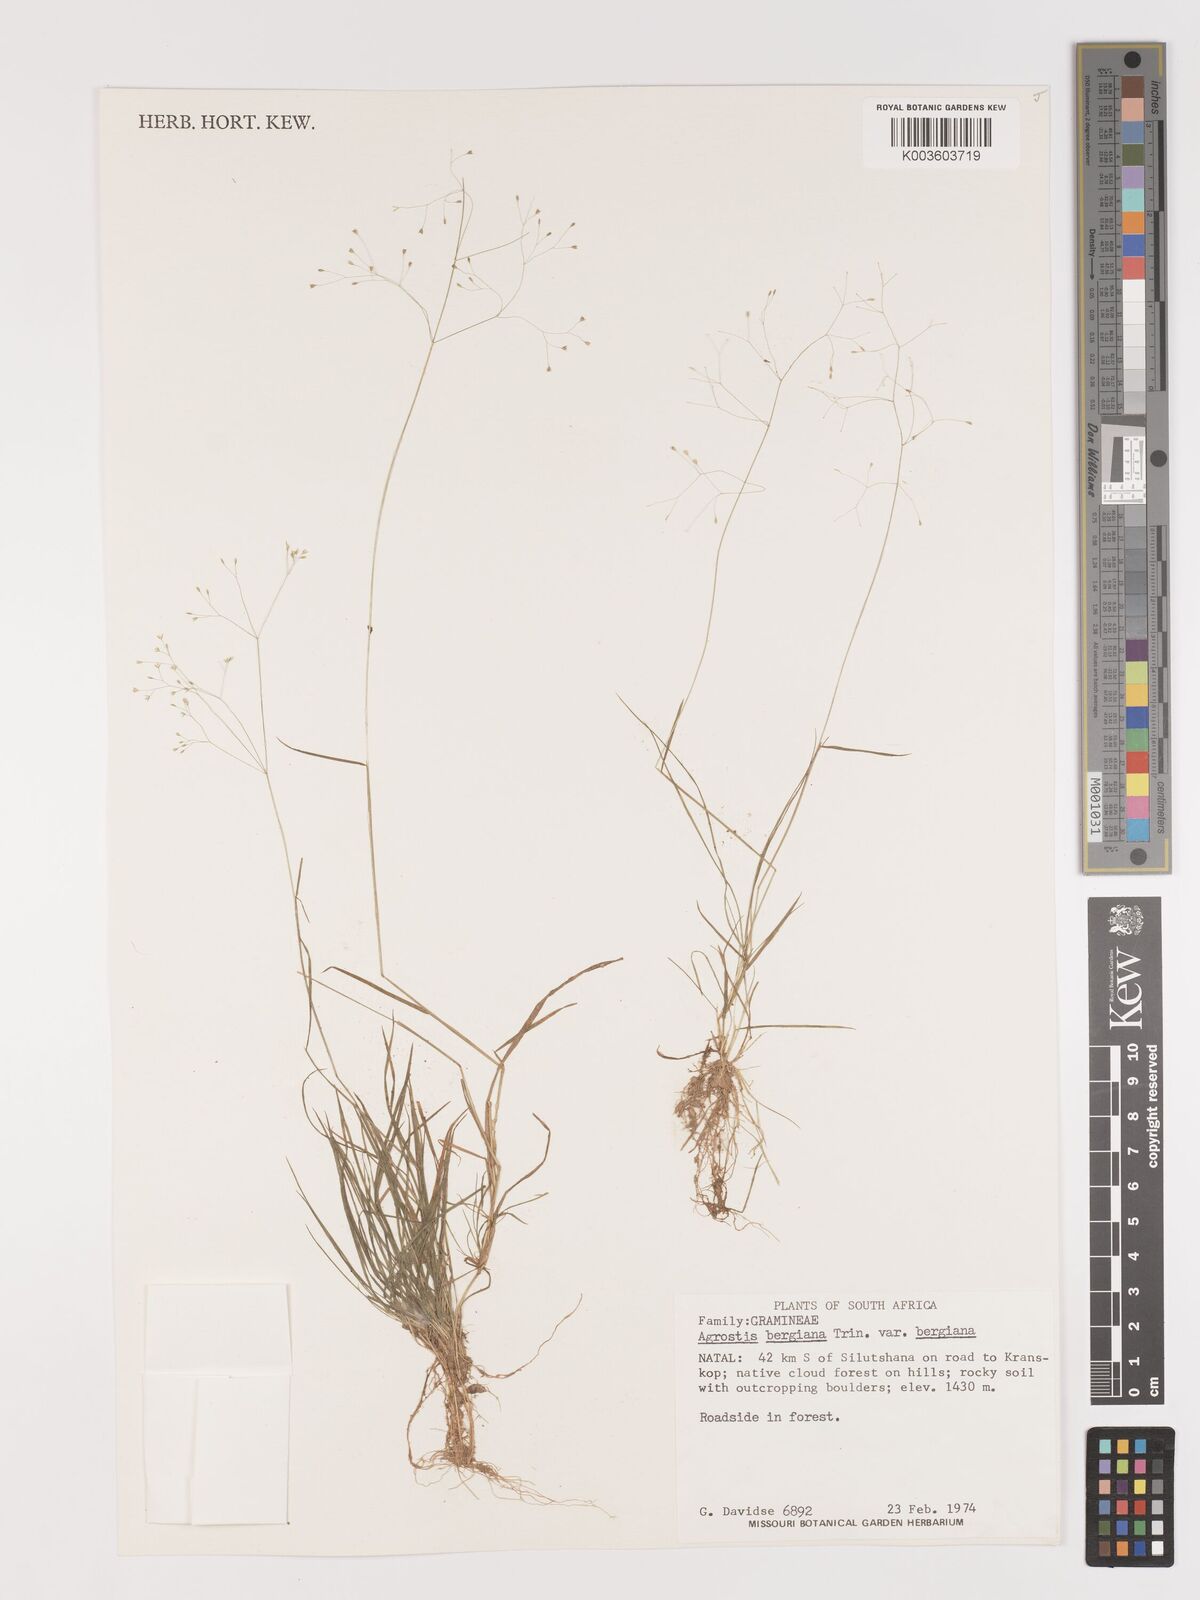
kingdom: Plantae
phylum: Tracheophyta
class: Liliopsida
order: Poales
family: Poaceae
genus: Agrostis
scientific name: Agrostis bergiana
